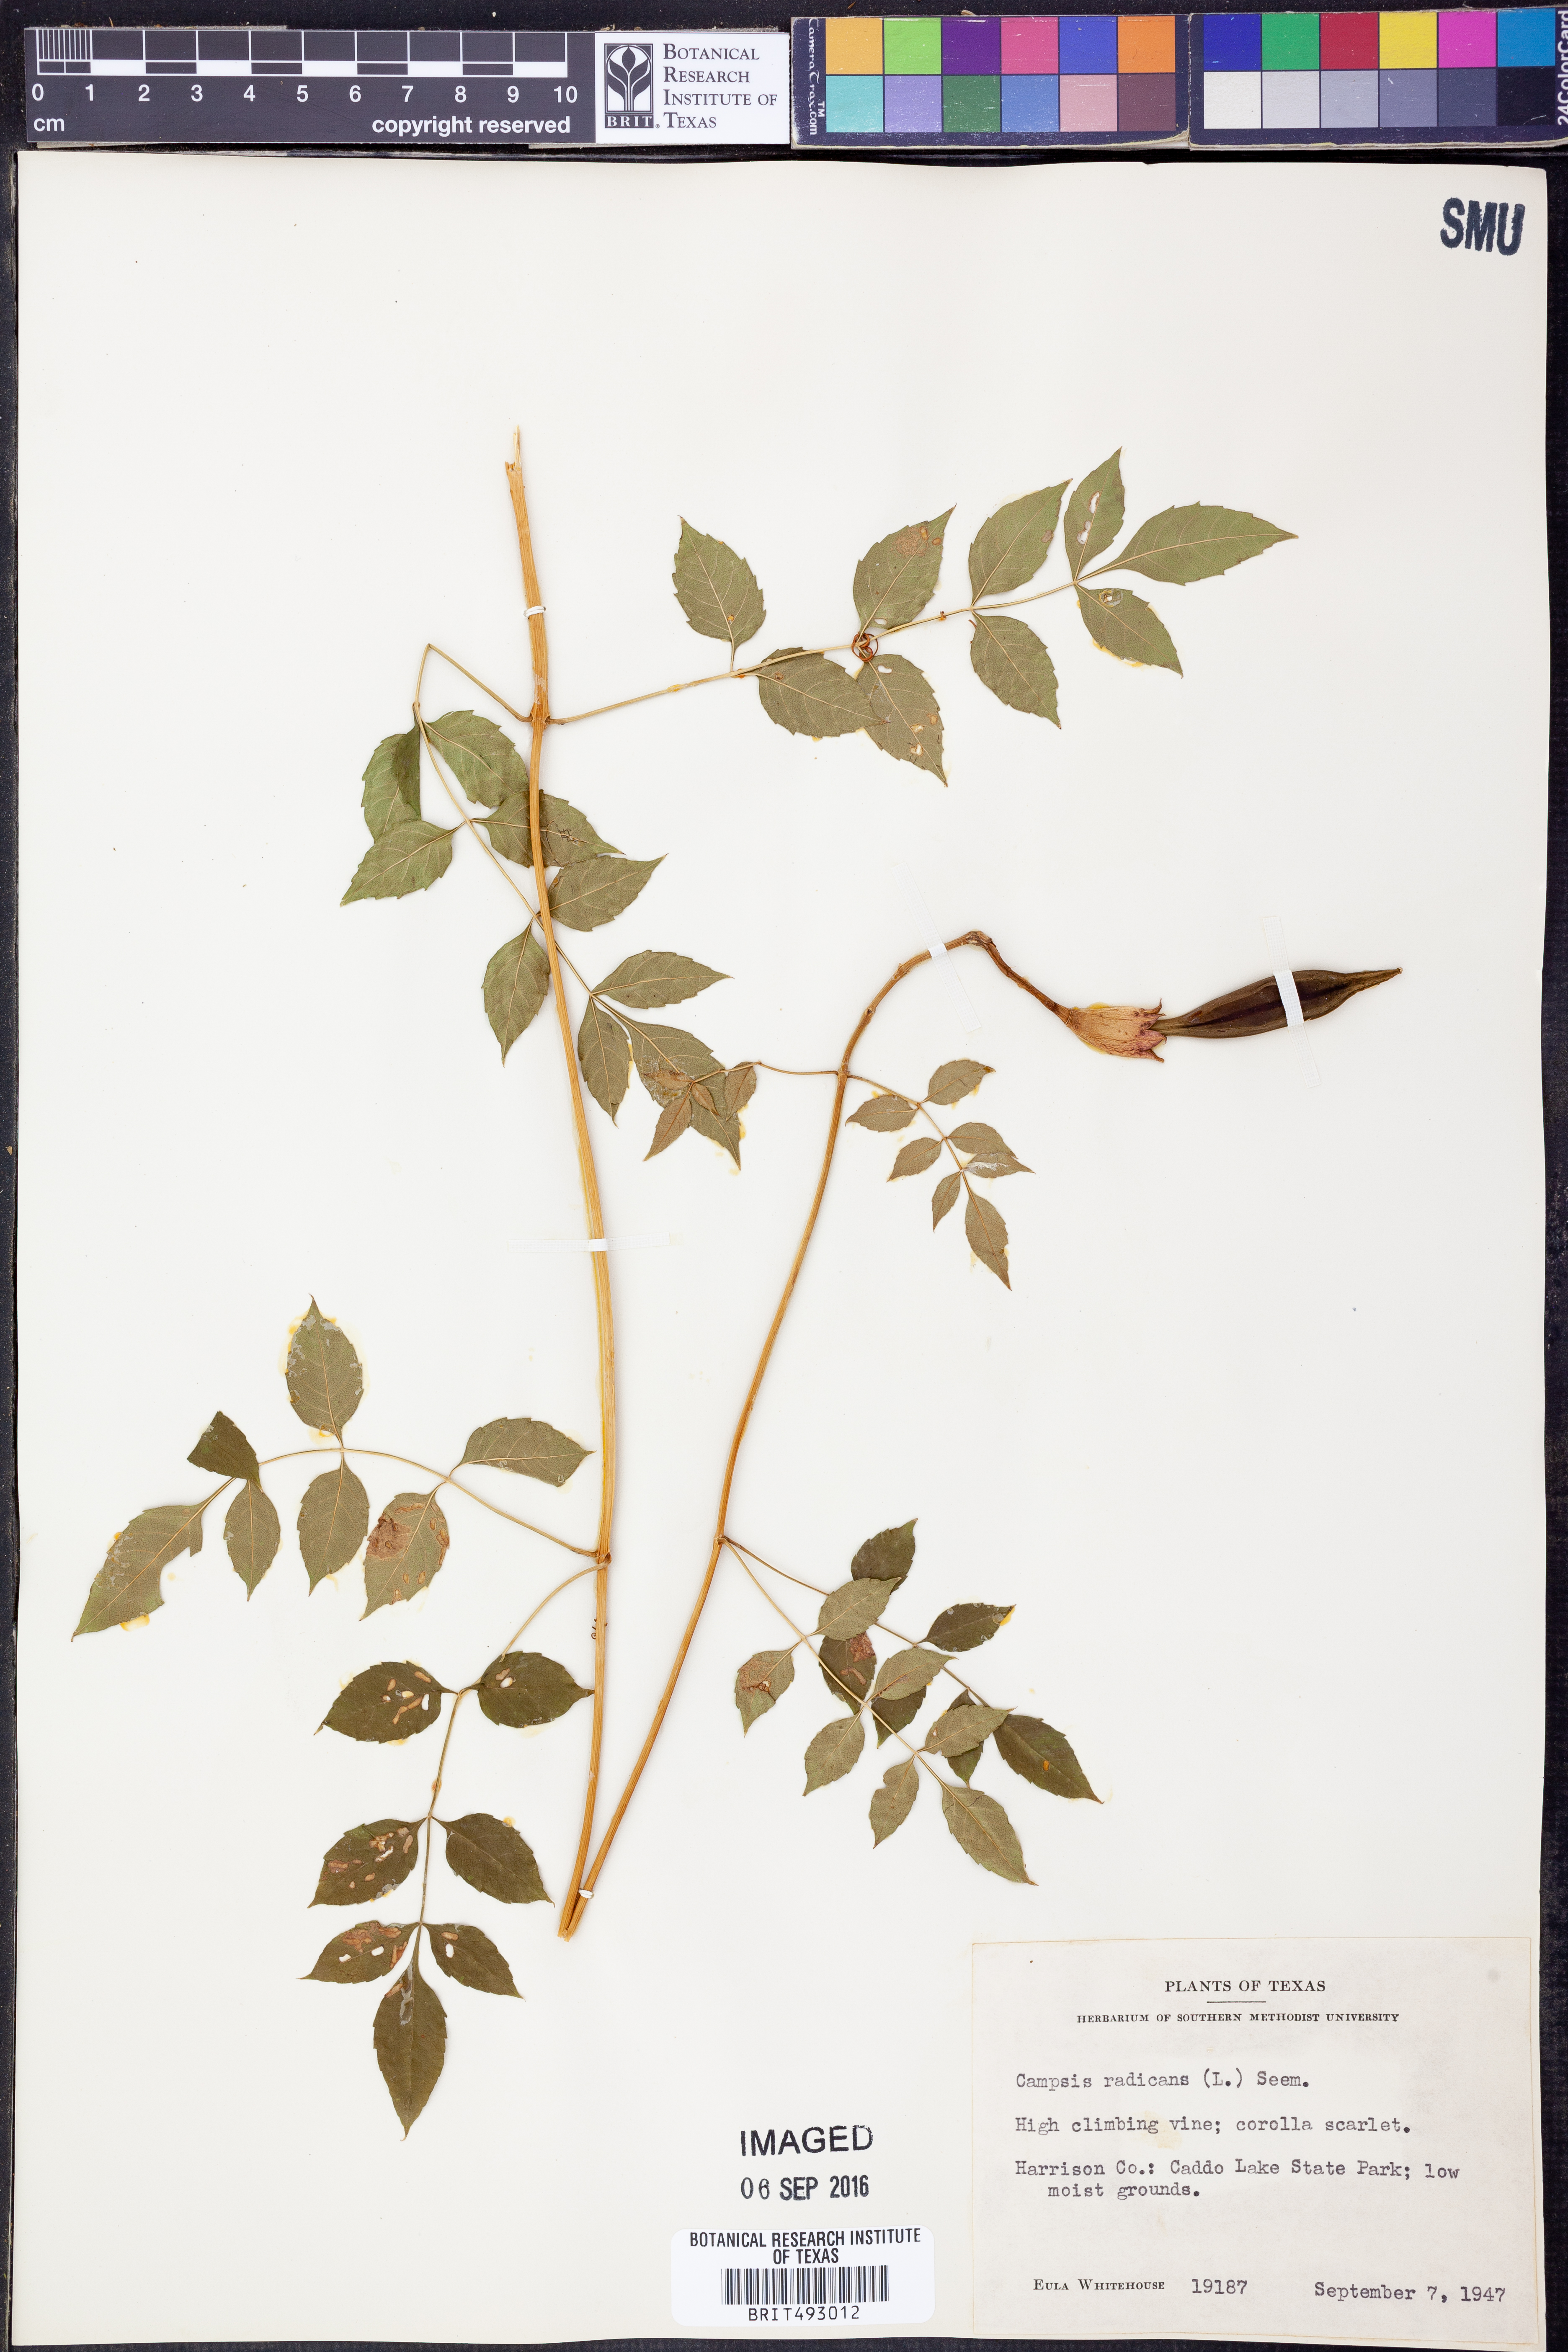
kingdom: Plantae
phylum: Tracheophyta
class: Magnoliopsida
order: Lamiales
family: Bignoniaceae
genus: Campsis
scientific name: Campsis radicans
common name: Trumpet-creeper
